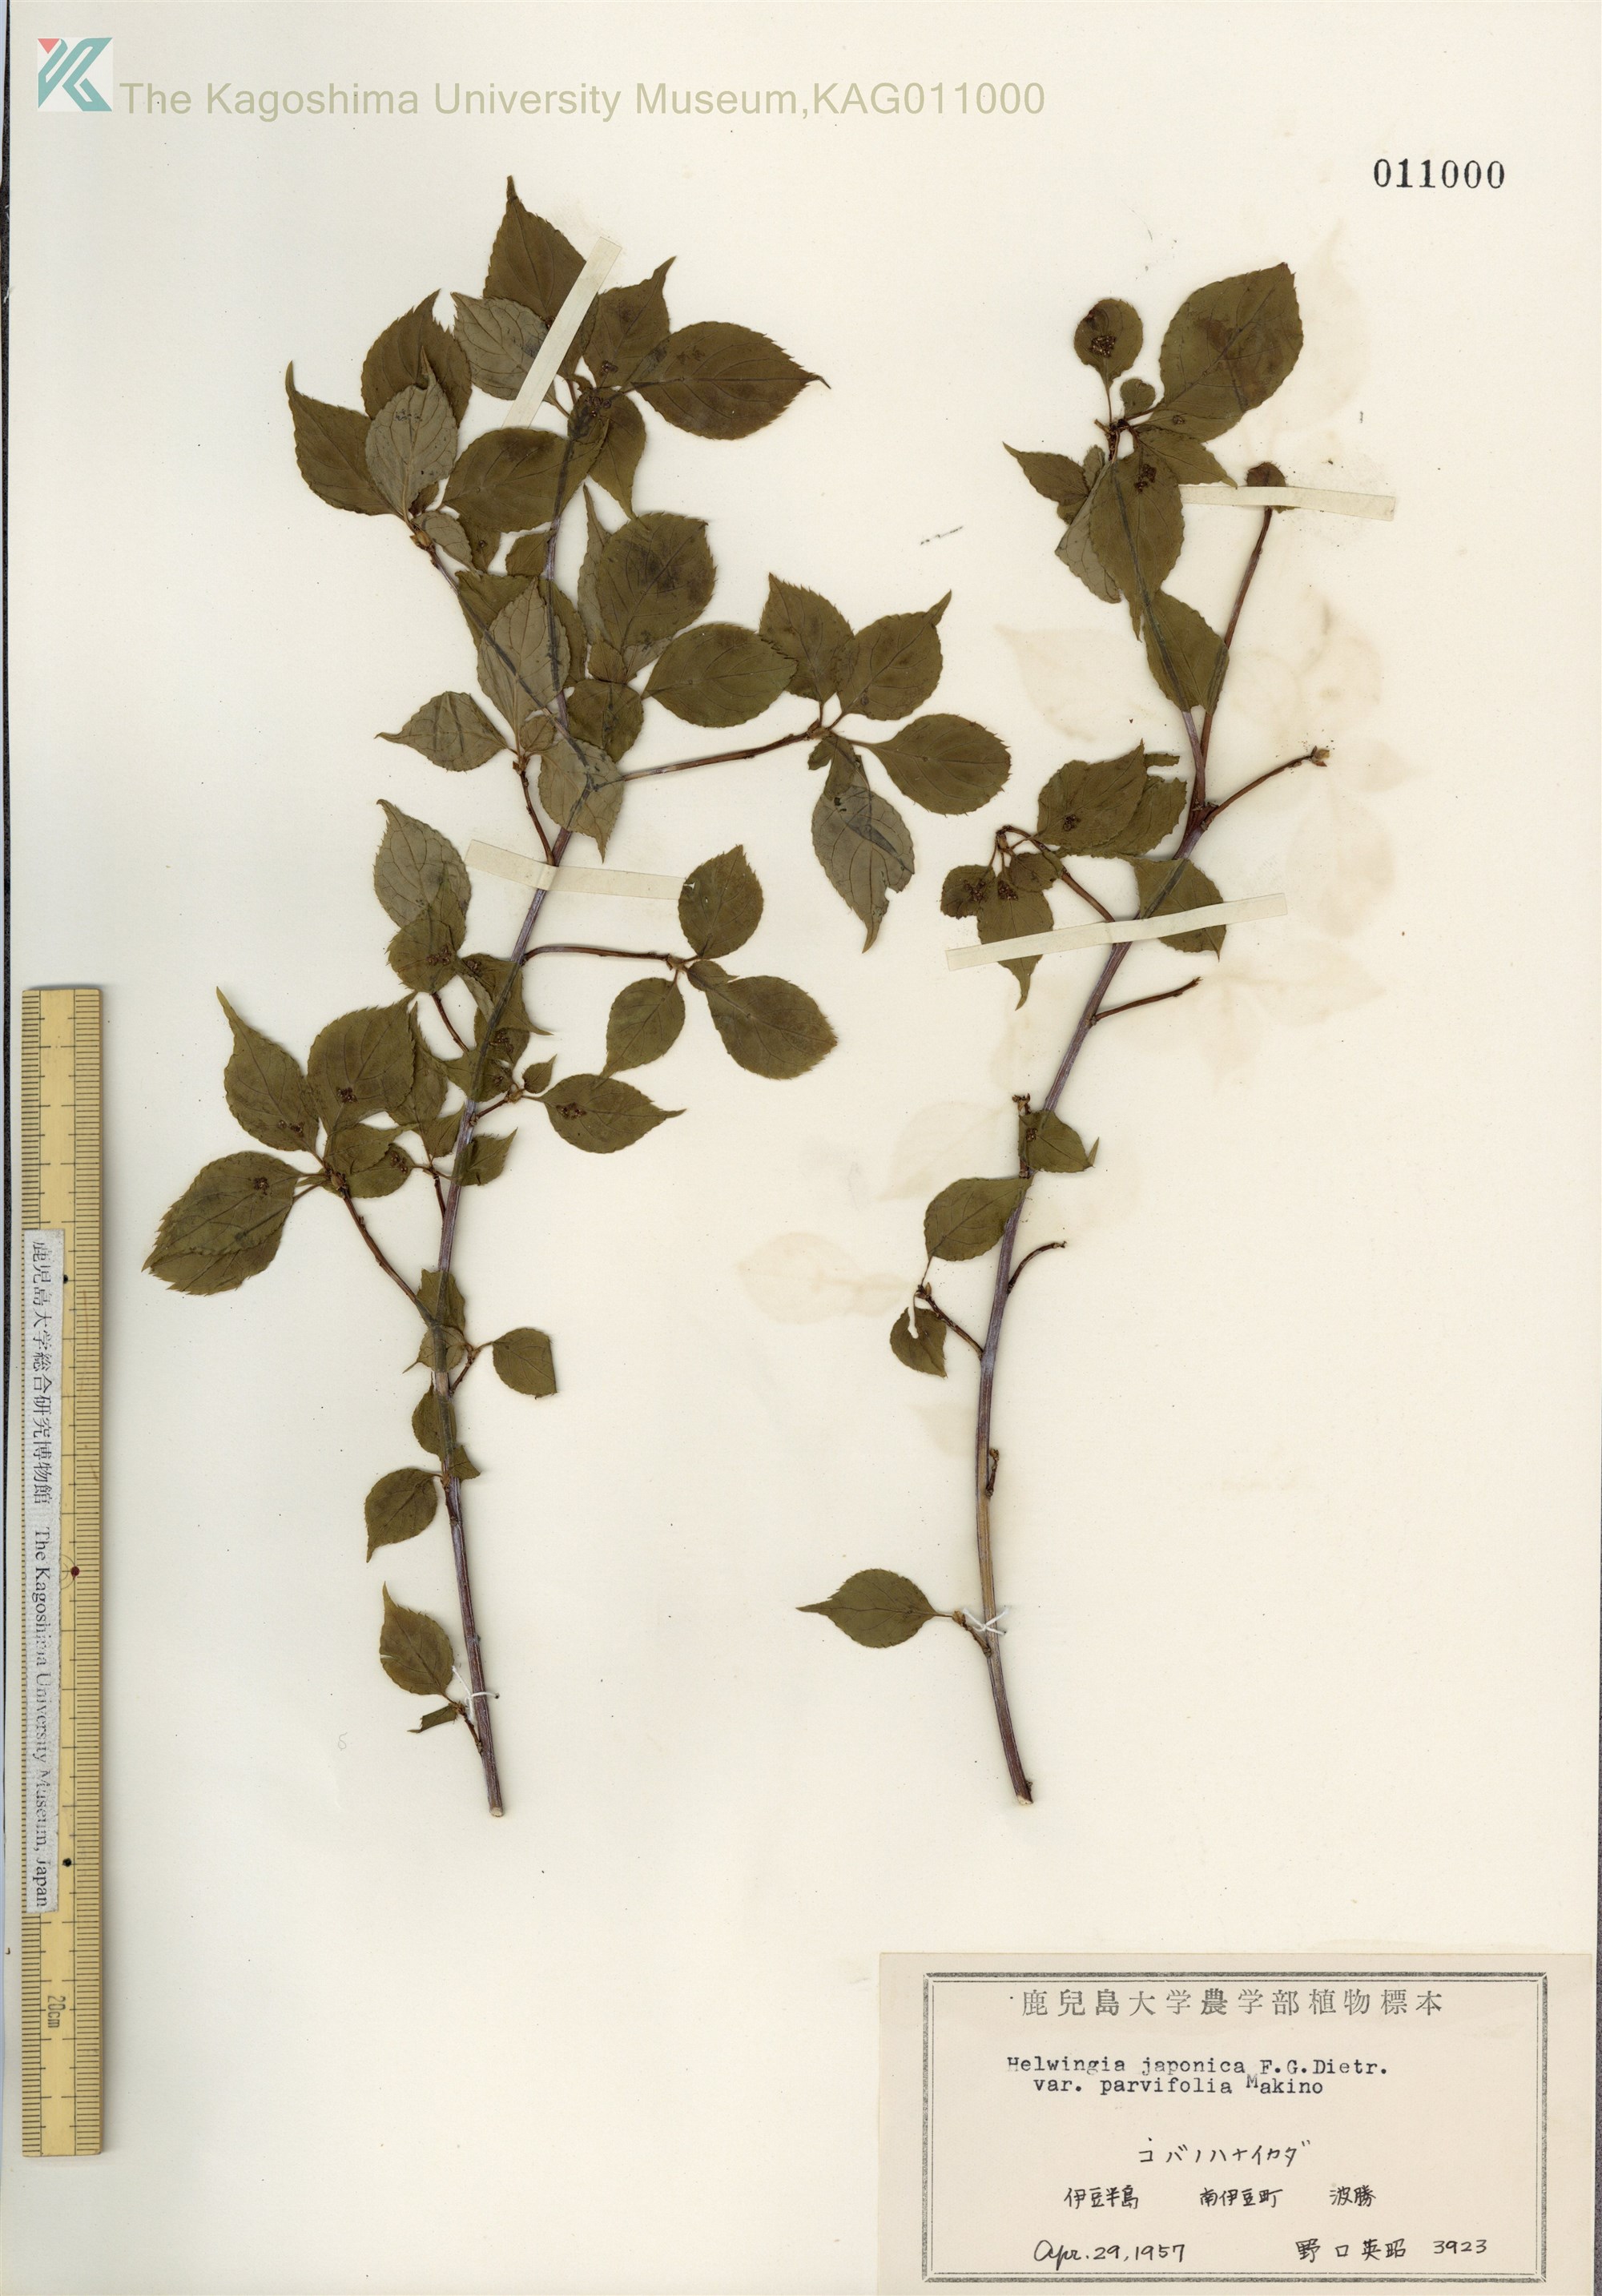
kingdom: Plantae
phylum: Tracheophyta
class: Magnoliopsida
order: Aquifoliales
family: Helwingiaceae
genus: Helwingia
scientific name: Helwingia japonica
